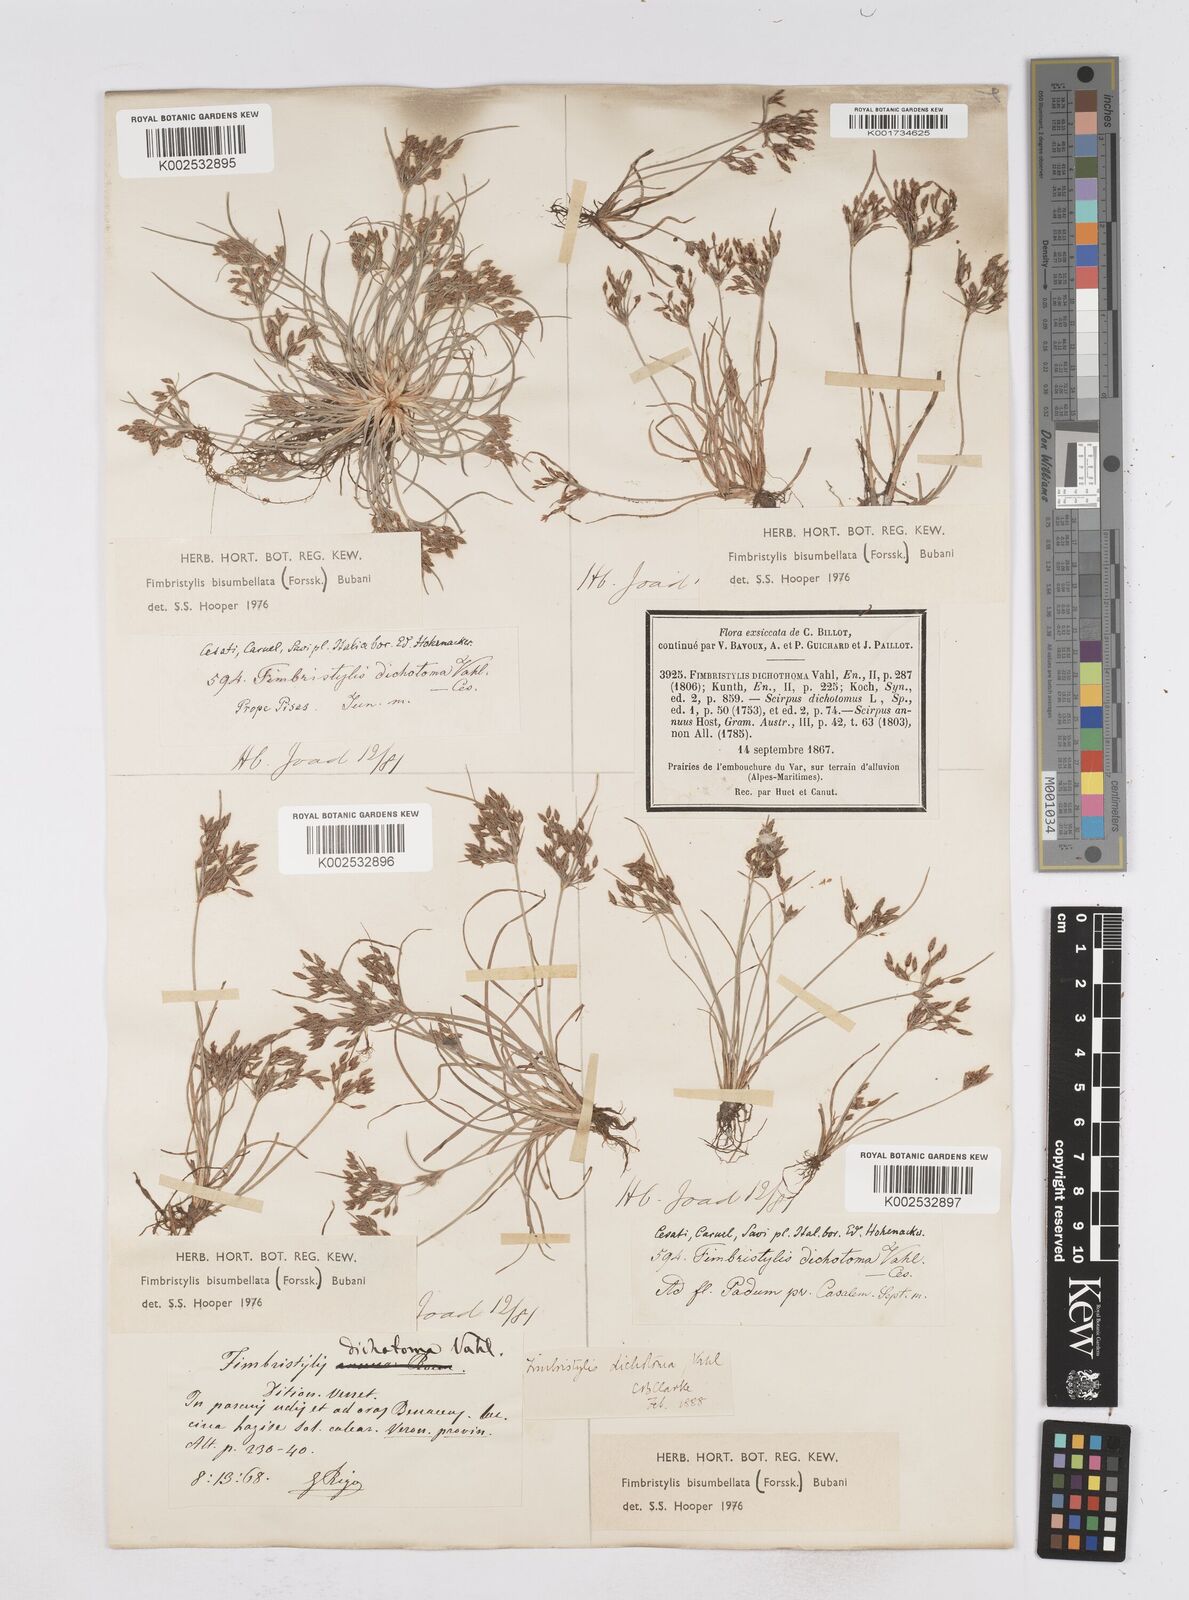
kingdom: Plantae
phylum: Tracheophyta
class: Liliopsida
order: Poales
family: Cyperaceae
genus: Fimbristylis
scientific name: Fimbristylis bisumbellata
